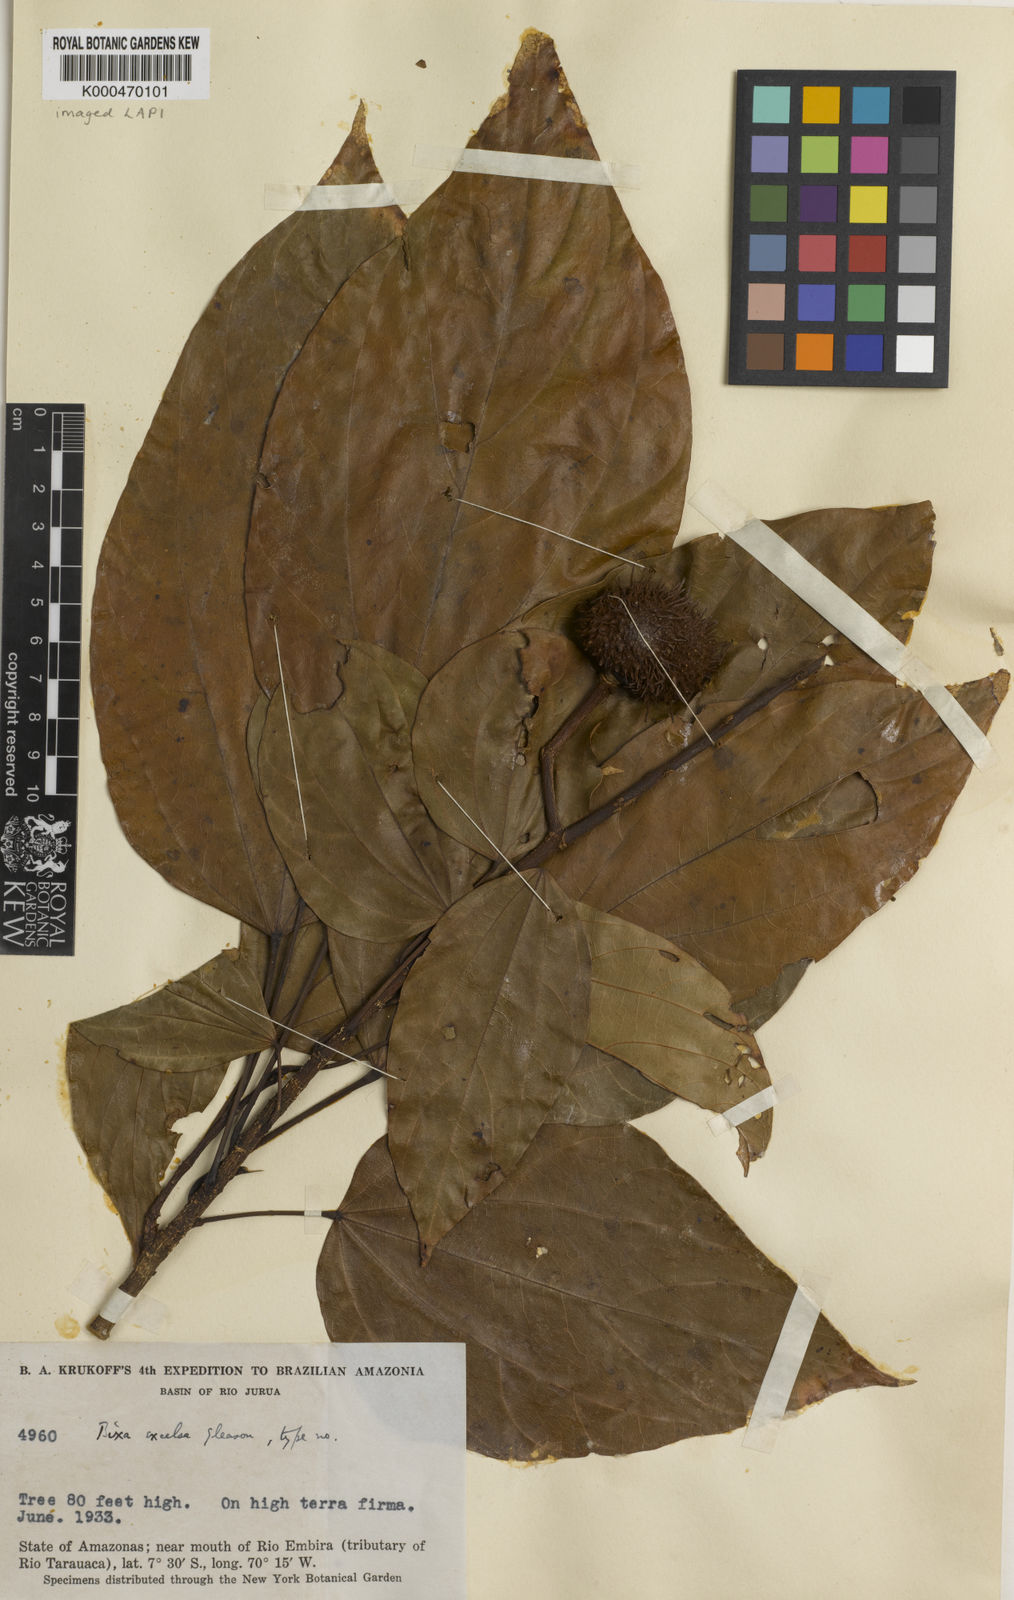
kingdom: Plantae
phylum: Tracheophyta
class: Magnoliopsida
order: Malvales
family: Bixaceae
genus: Bixa
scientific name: Bixa excelsa
